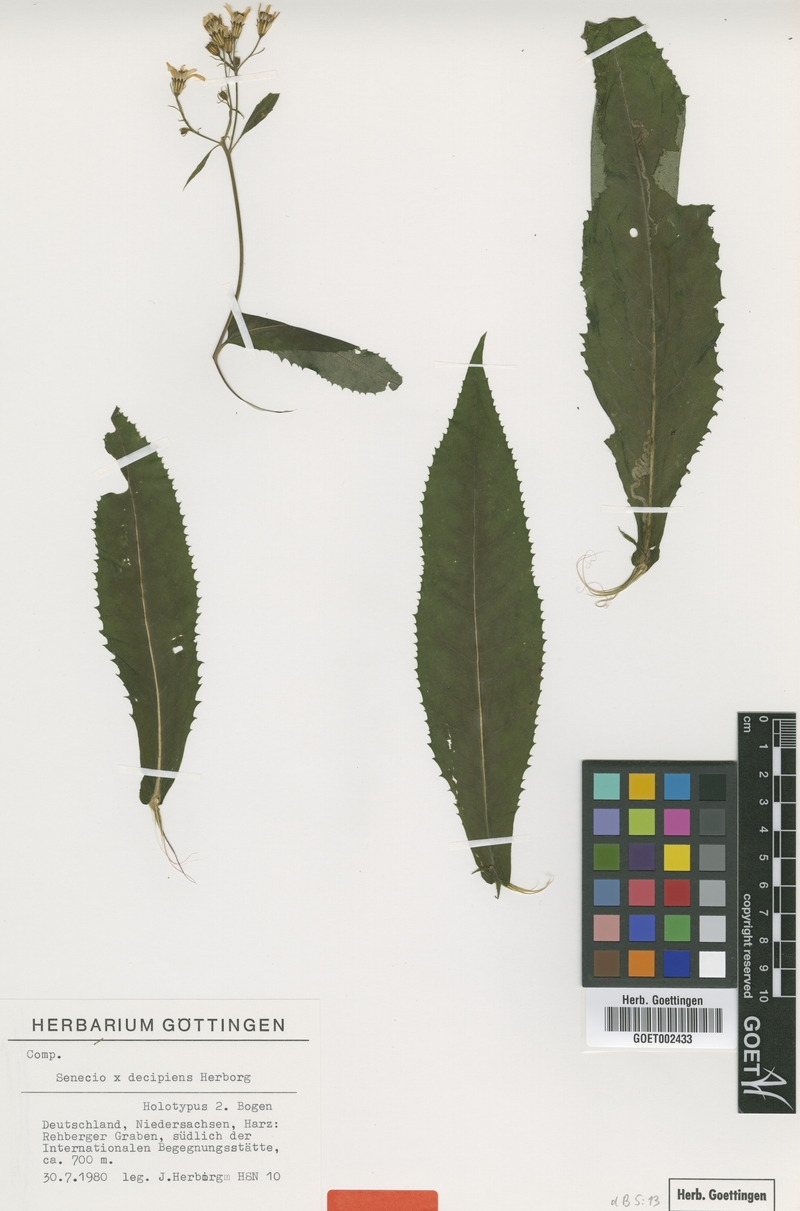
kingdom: Plantae
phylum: Tracheophyta
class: Magnoliopsida
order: Asterales
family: Asteraceae
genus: Senecio
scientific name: Senecio decipiens
